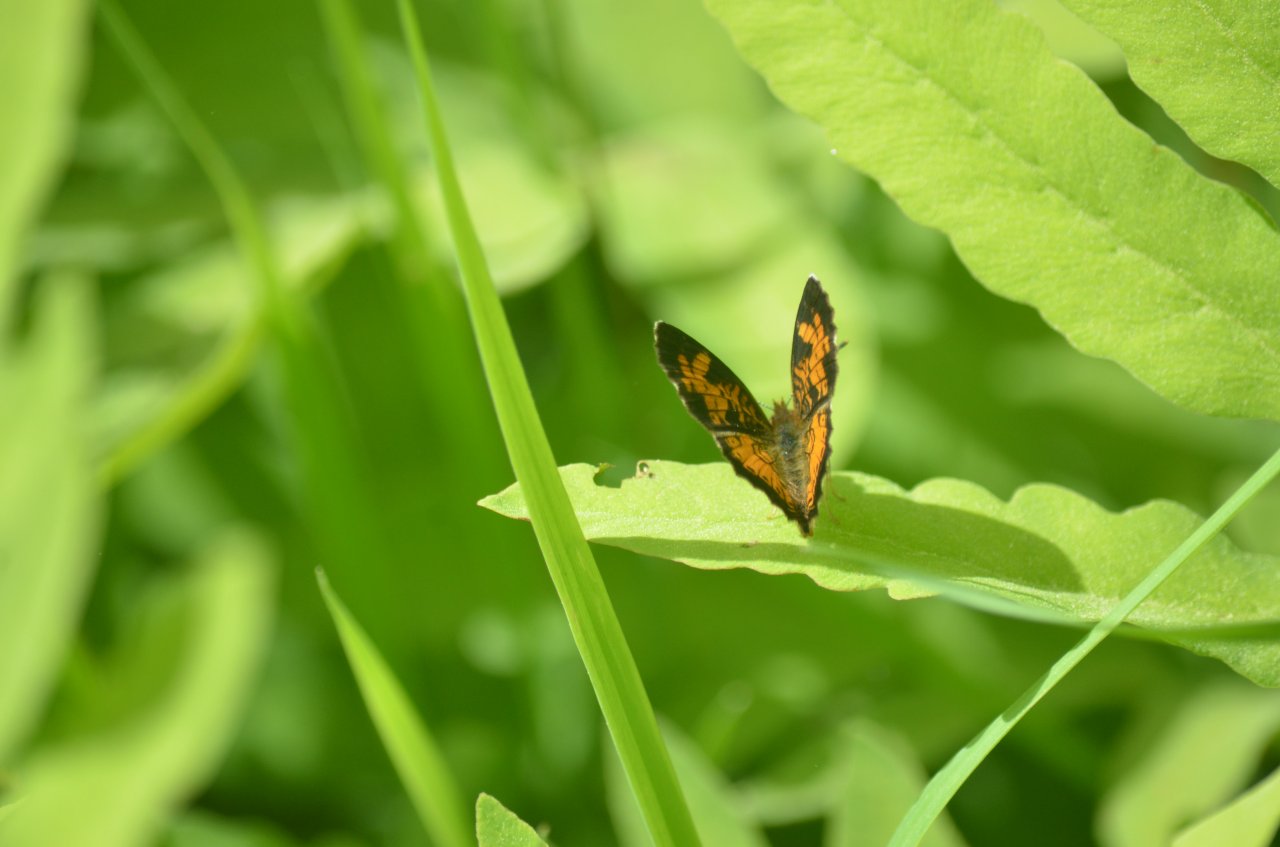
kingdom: Animalia
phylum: Arthropoda
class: Insecta
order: Lepidoptera
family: Nymphalidae
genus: Phyciodes
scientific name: Phyciodes tharos
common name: Northern Crescent
